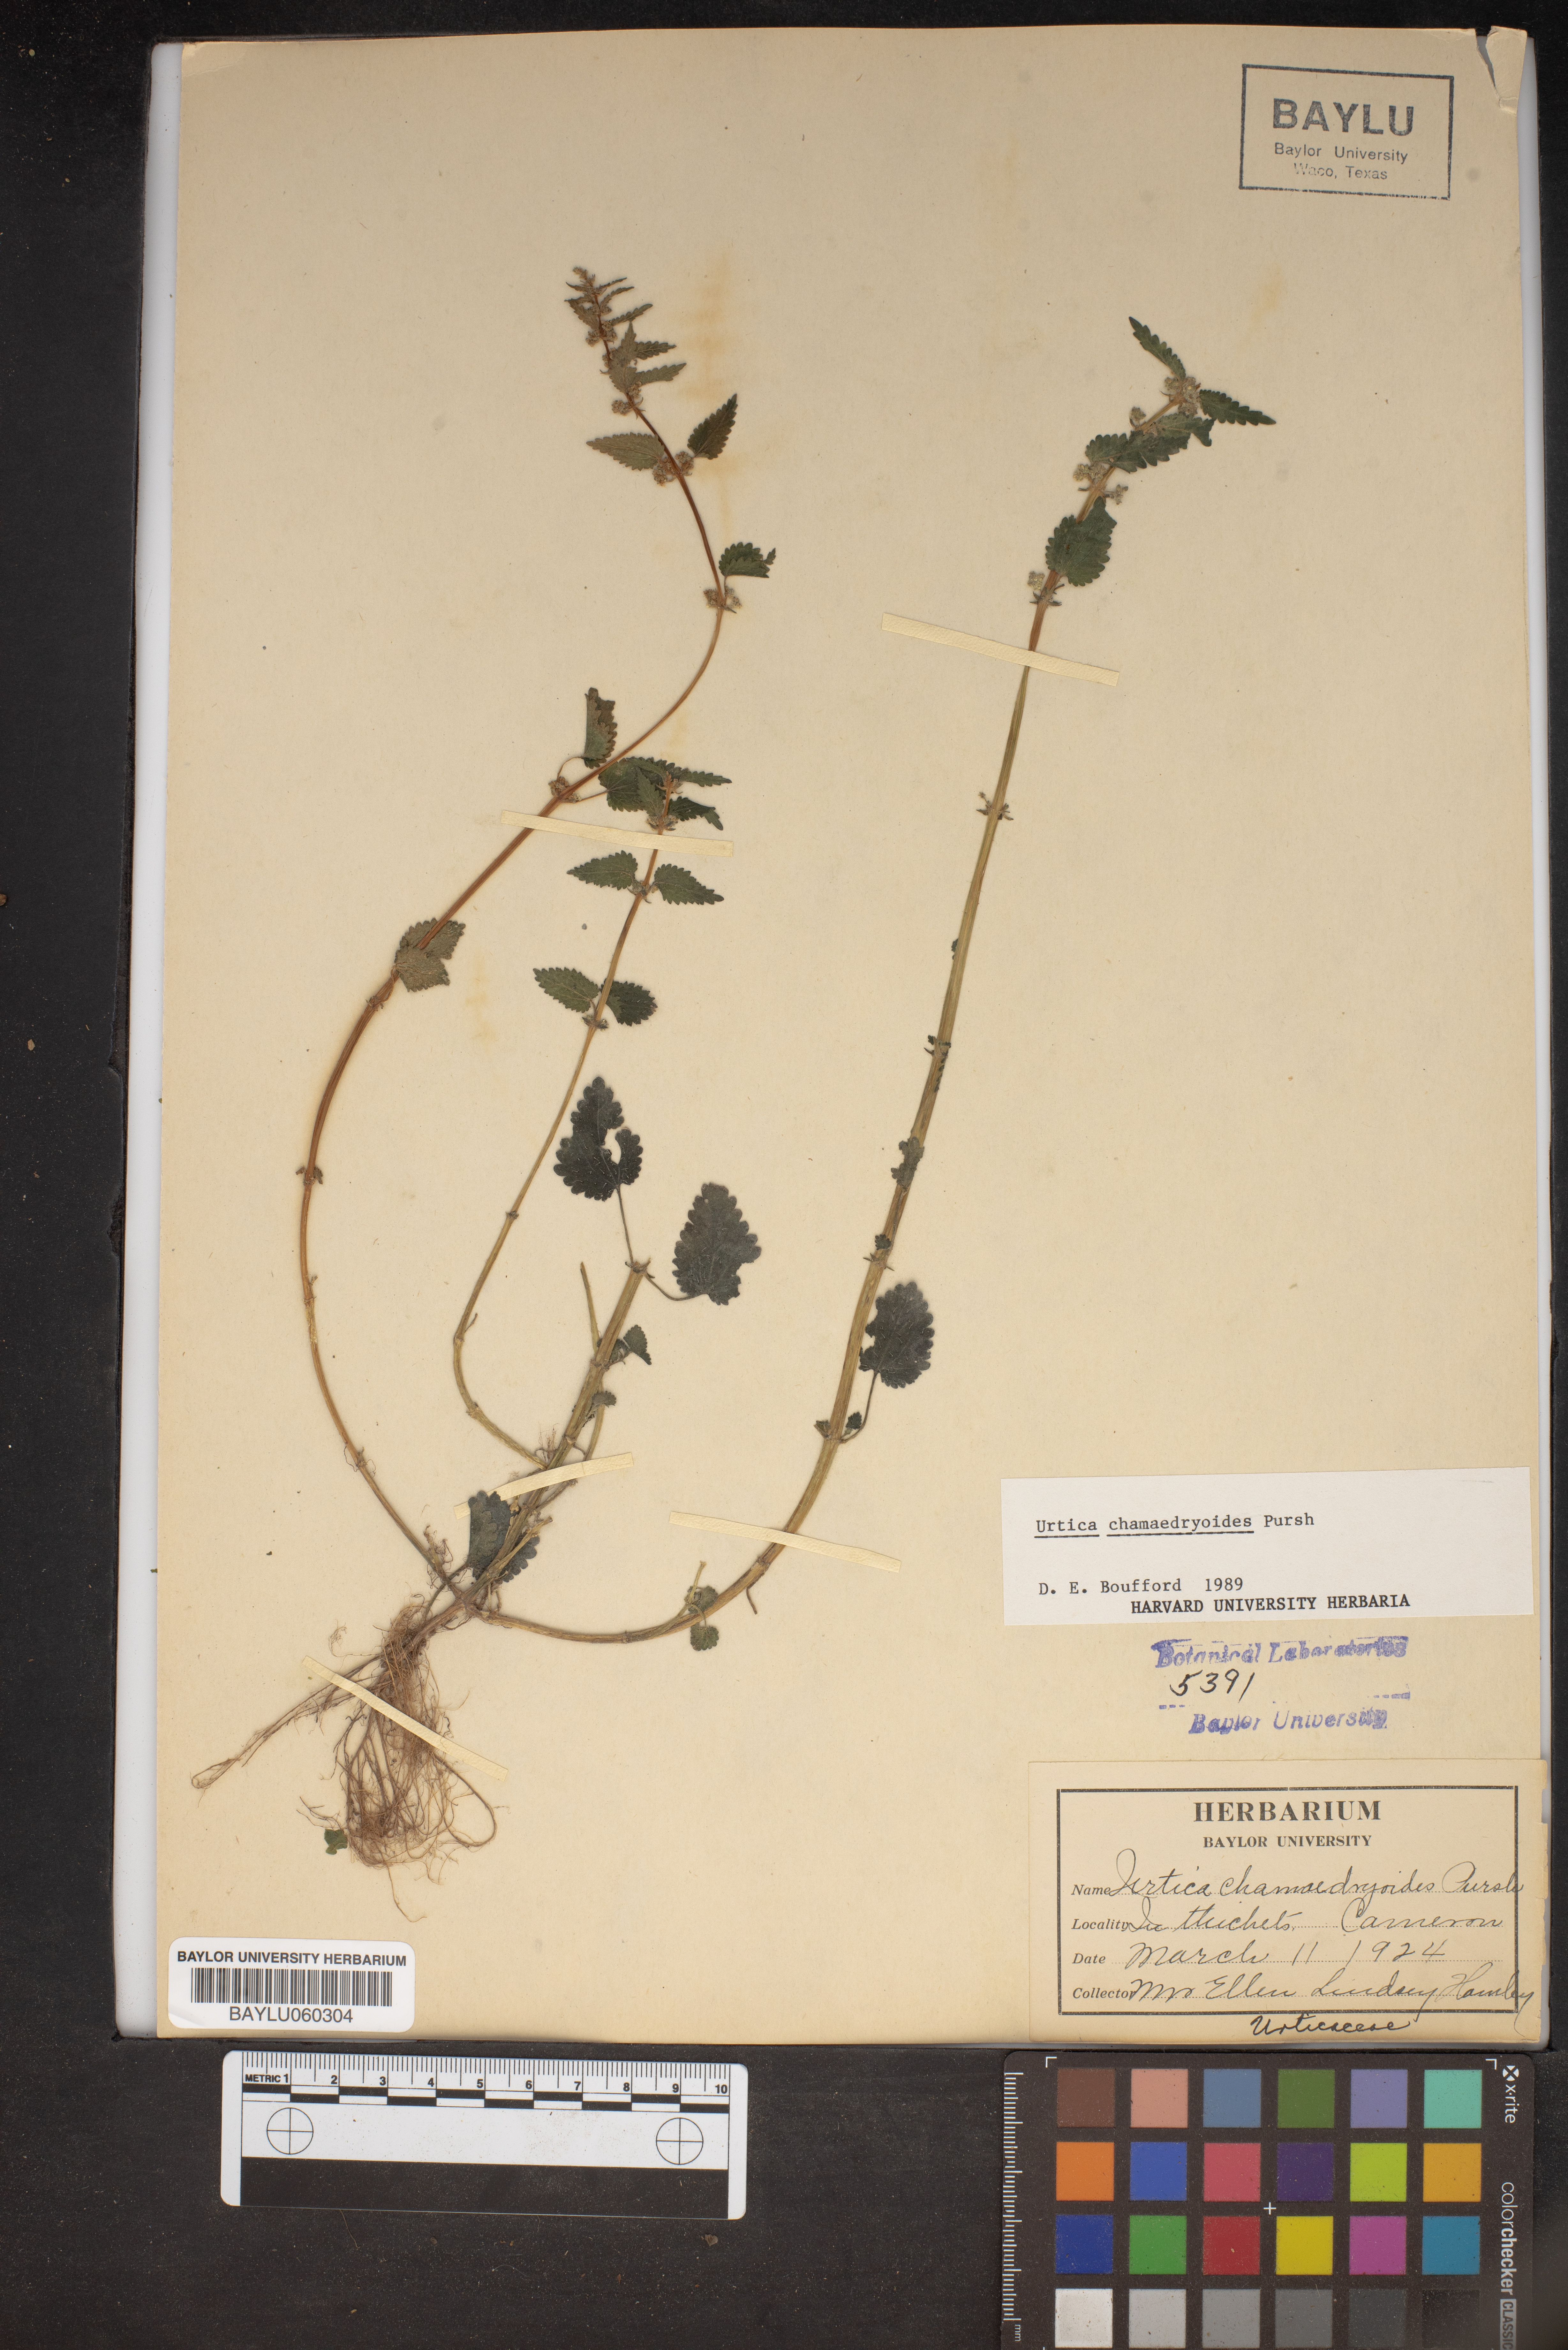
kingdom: Plantae
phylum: Tracheophyta
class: Magnoliopsida
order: Rosales
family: Urticaceae
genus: Urtica
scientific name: Urtica chamaedryoides
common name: Heart-leaf nettle
